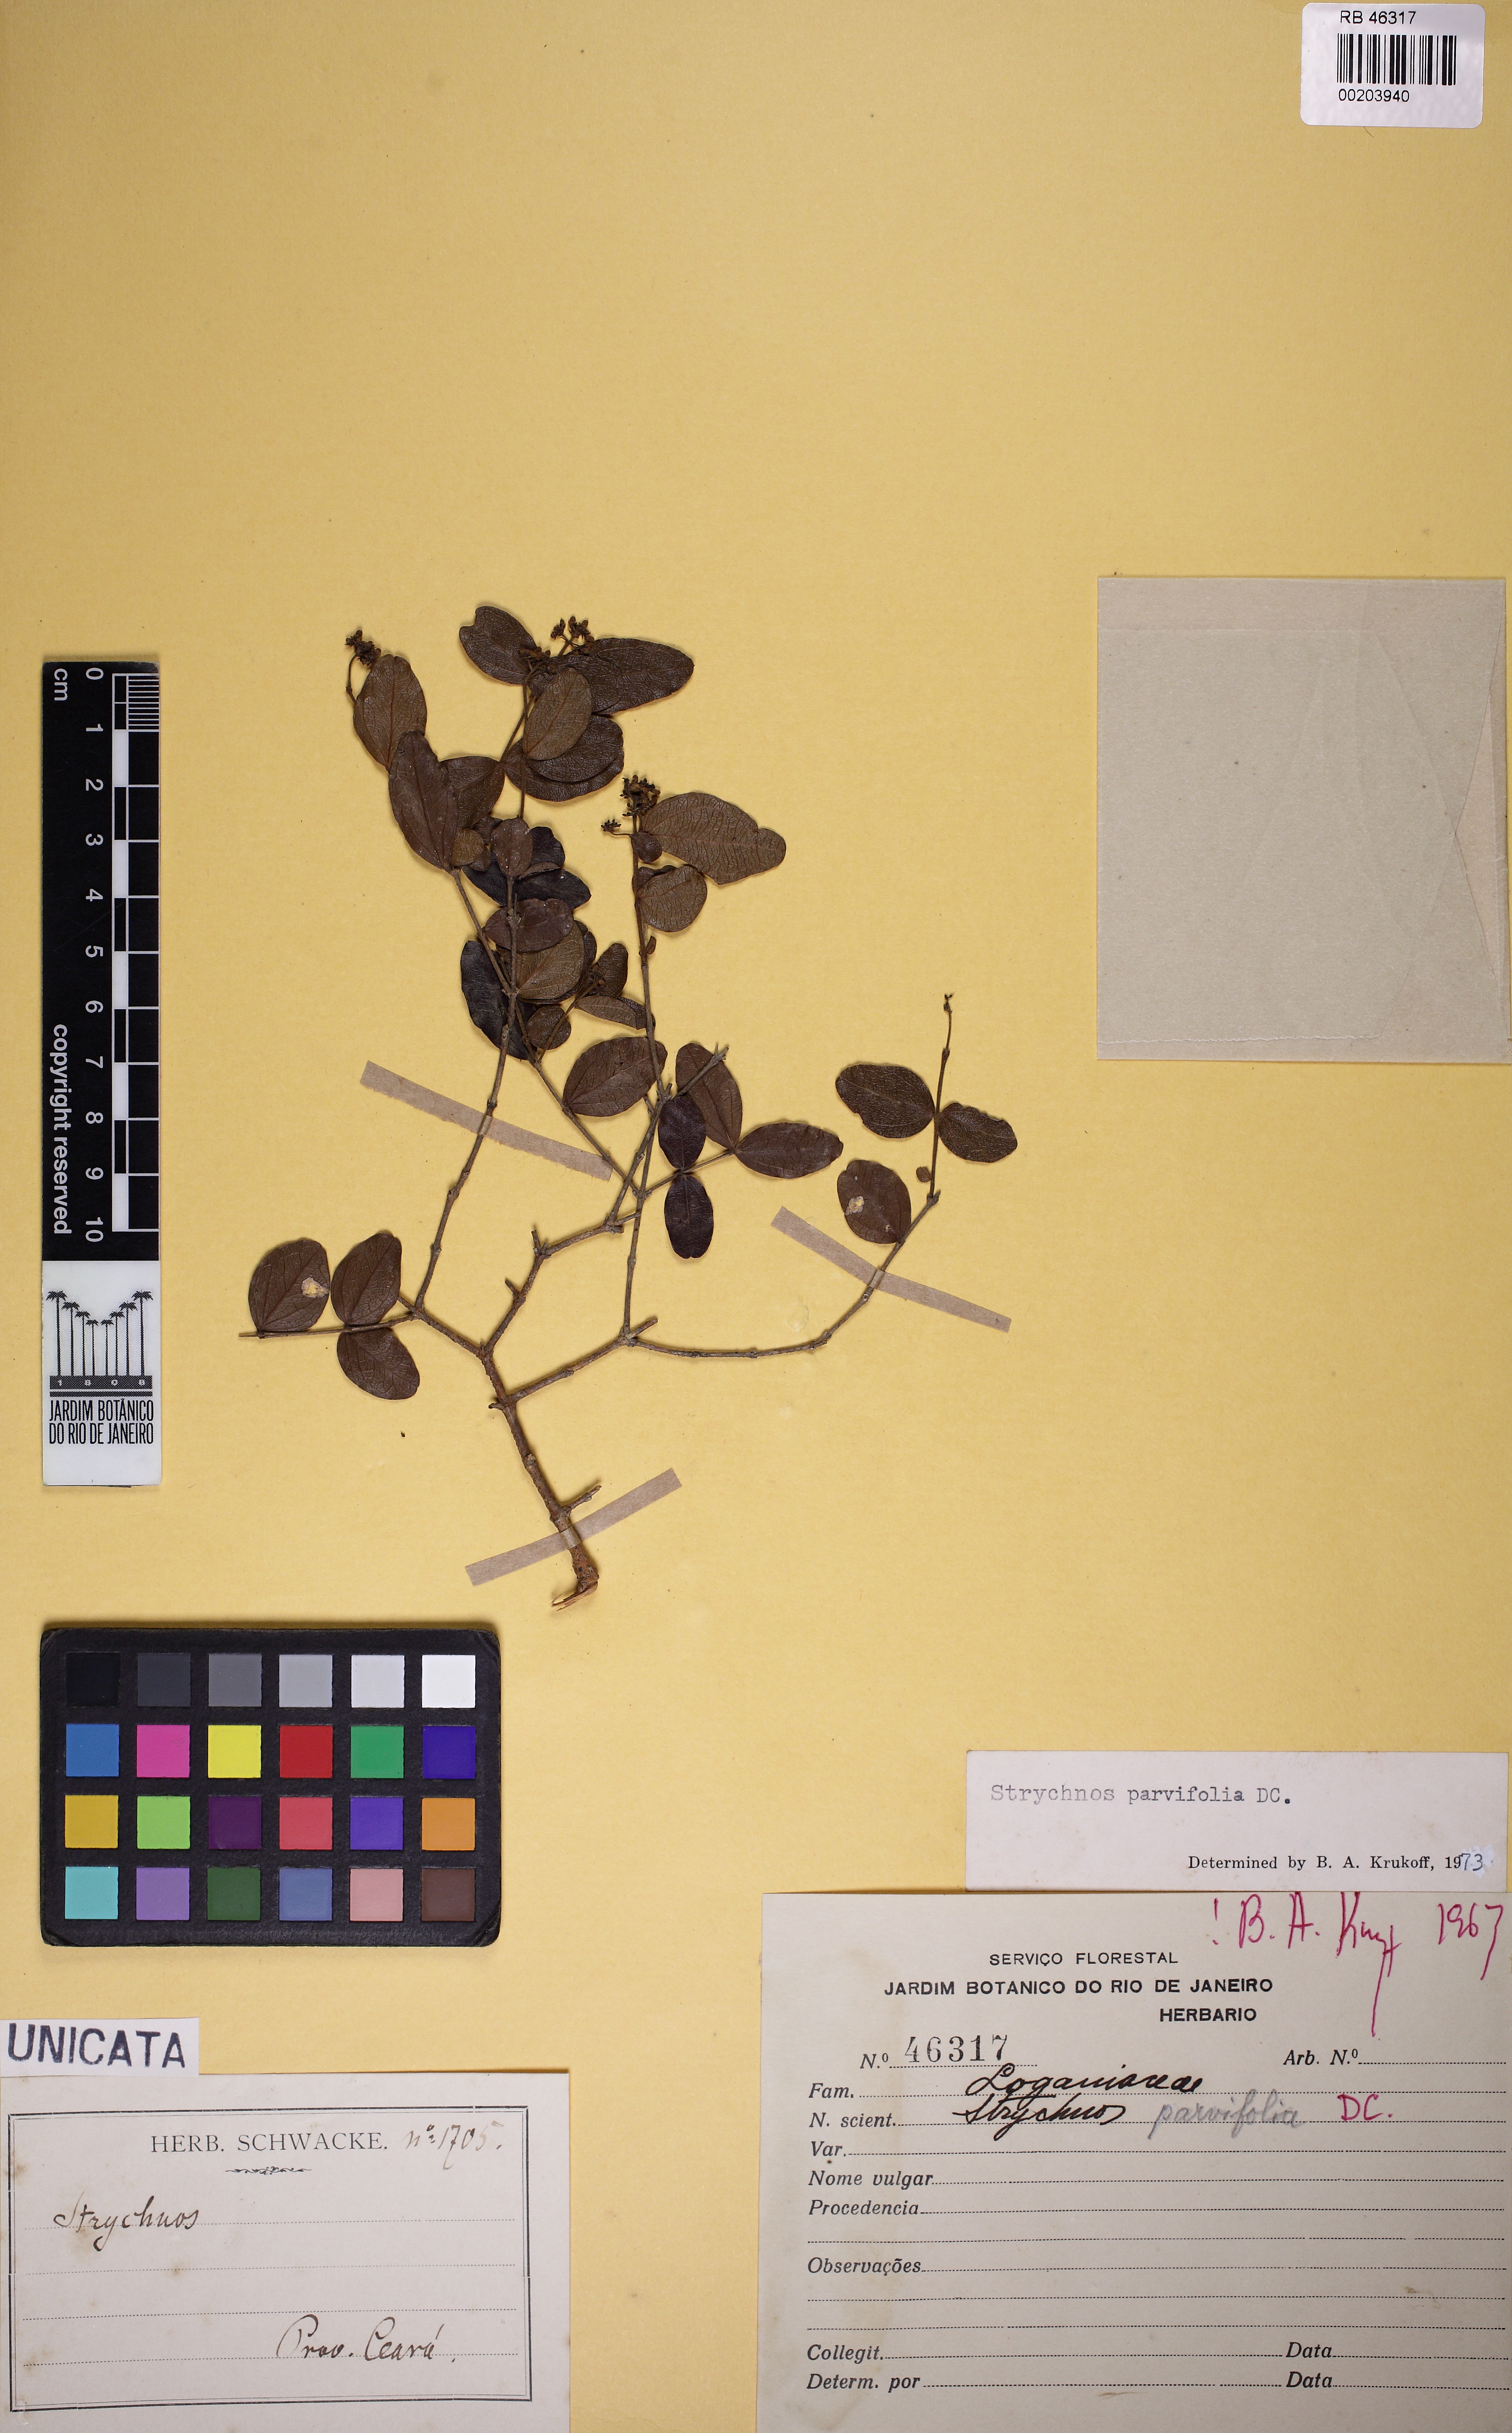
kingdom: Plantae
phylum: Tracheophyta
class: Magnoliopsida
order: Gentianales
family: Loganiaceae
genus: Strychnos
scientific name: Strychnos parvifolia
